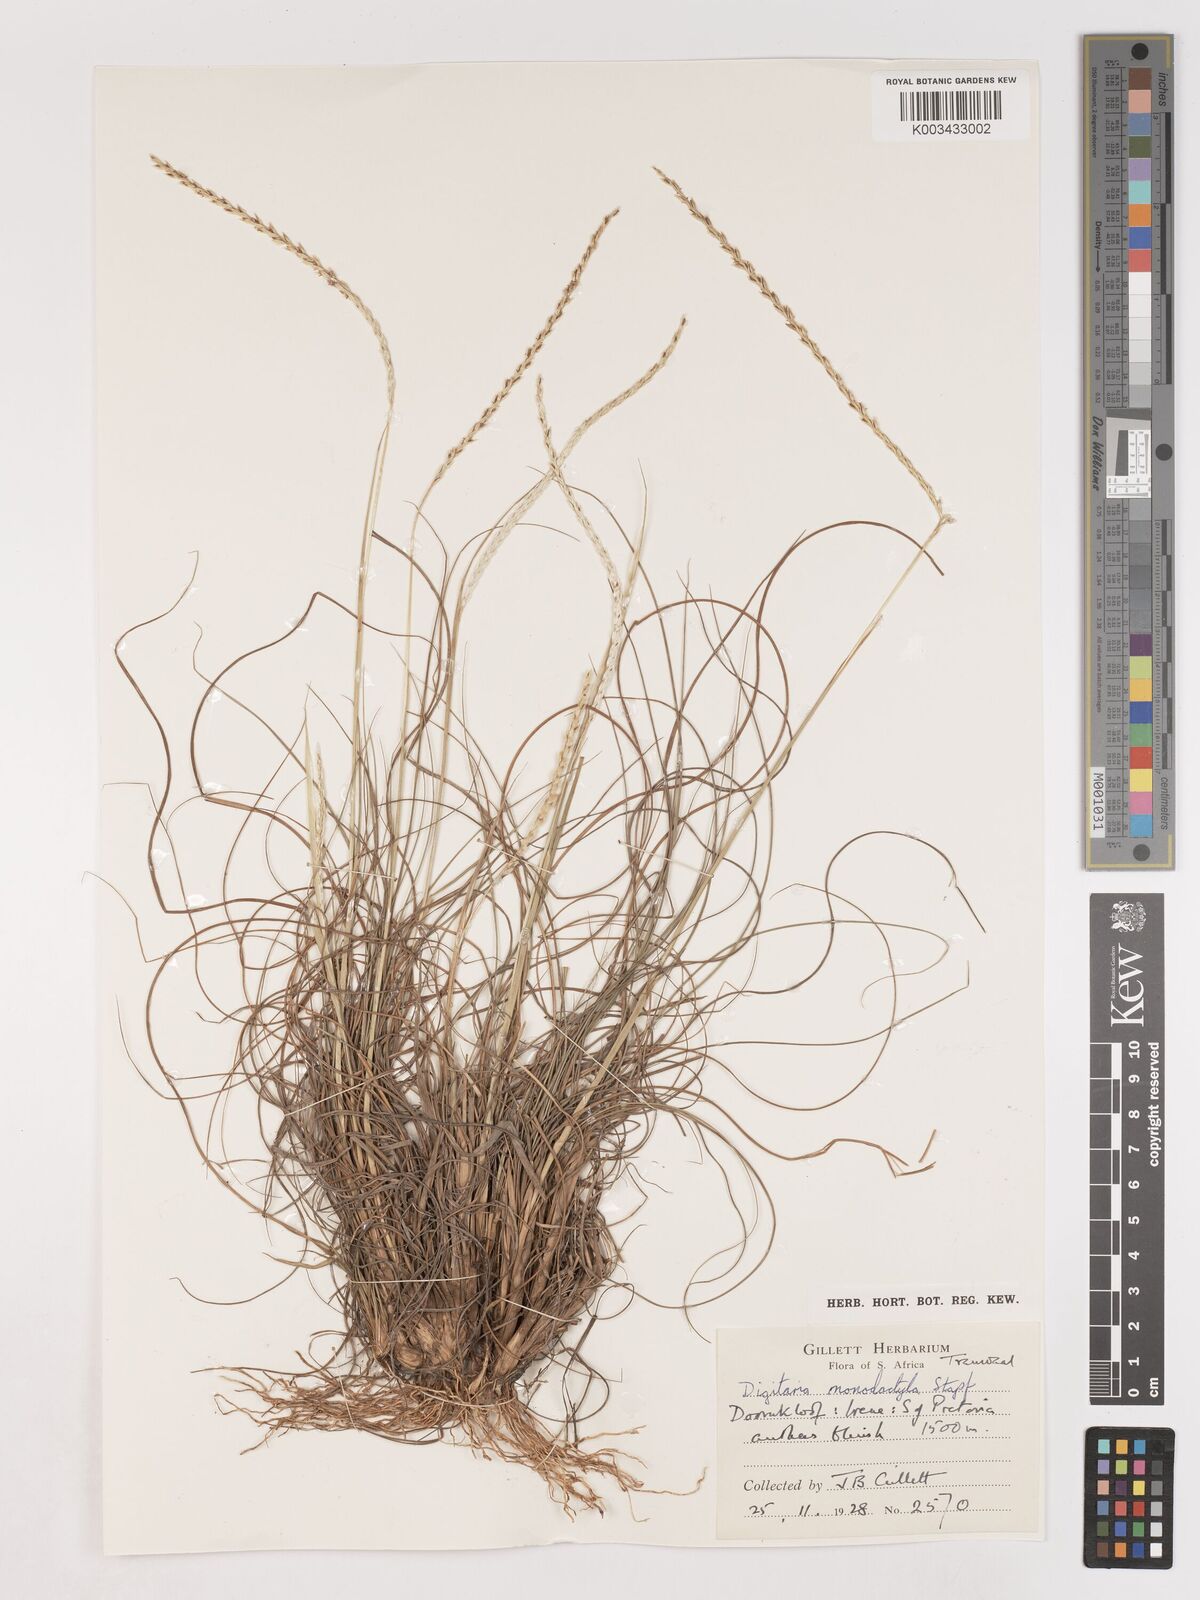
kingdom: Plantae
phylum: Tracheophyta
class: Liliopsida
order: Poales
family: Poaceae
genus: Digitaria
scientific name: Digitaria monodactyla
